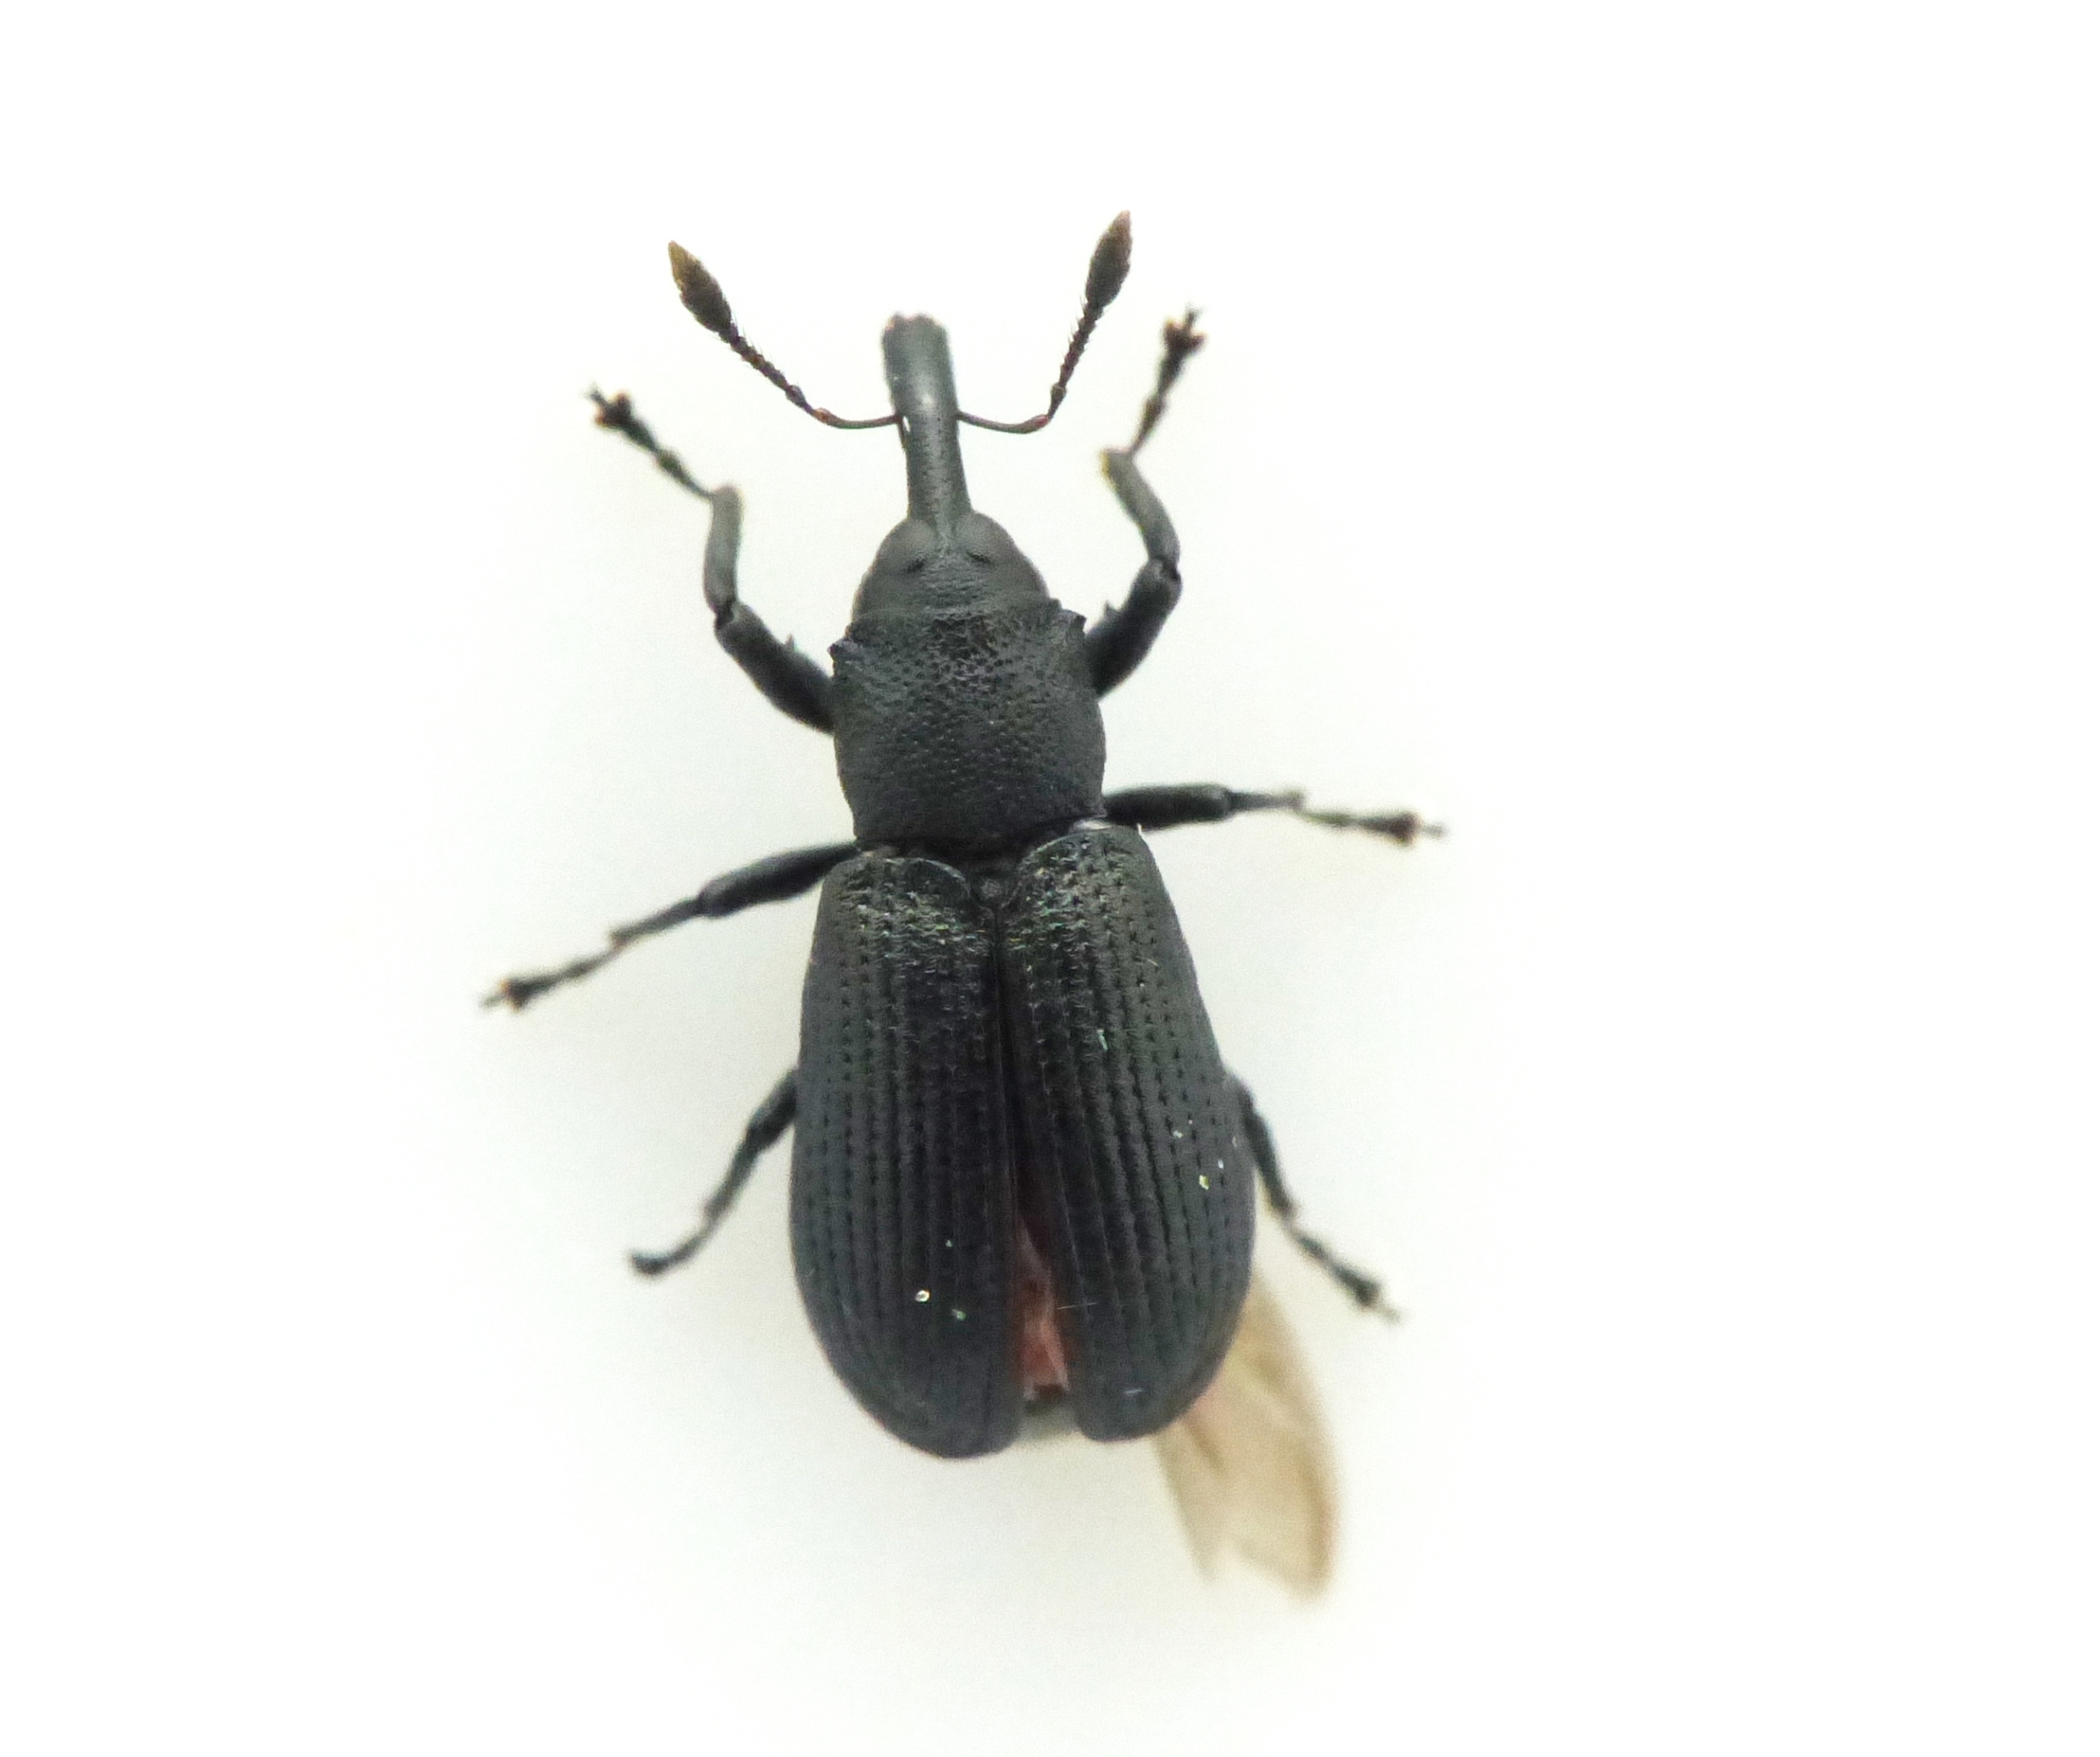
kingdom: Animalia
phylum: Arthropoda
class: Insecta
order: Coleoptera
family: Curculionidae
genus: Magdalis
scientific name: Magdalis armigera
